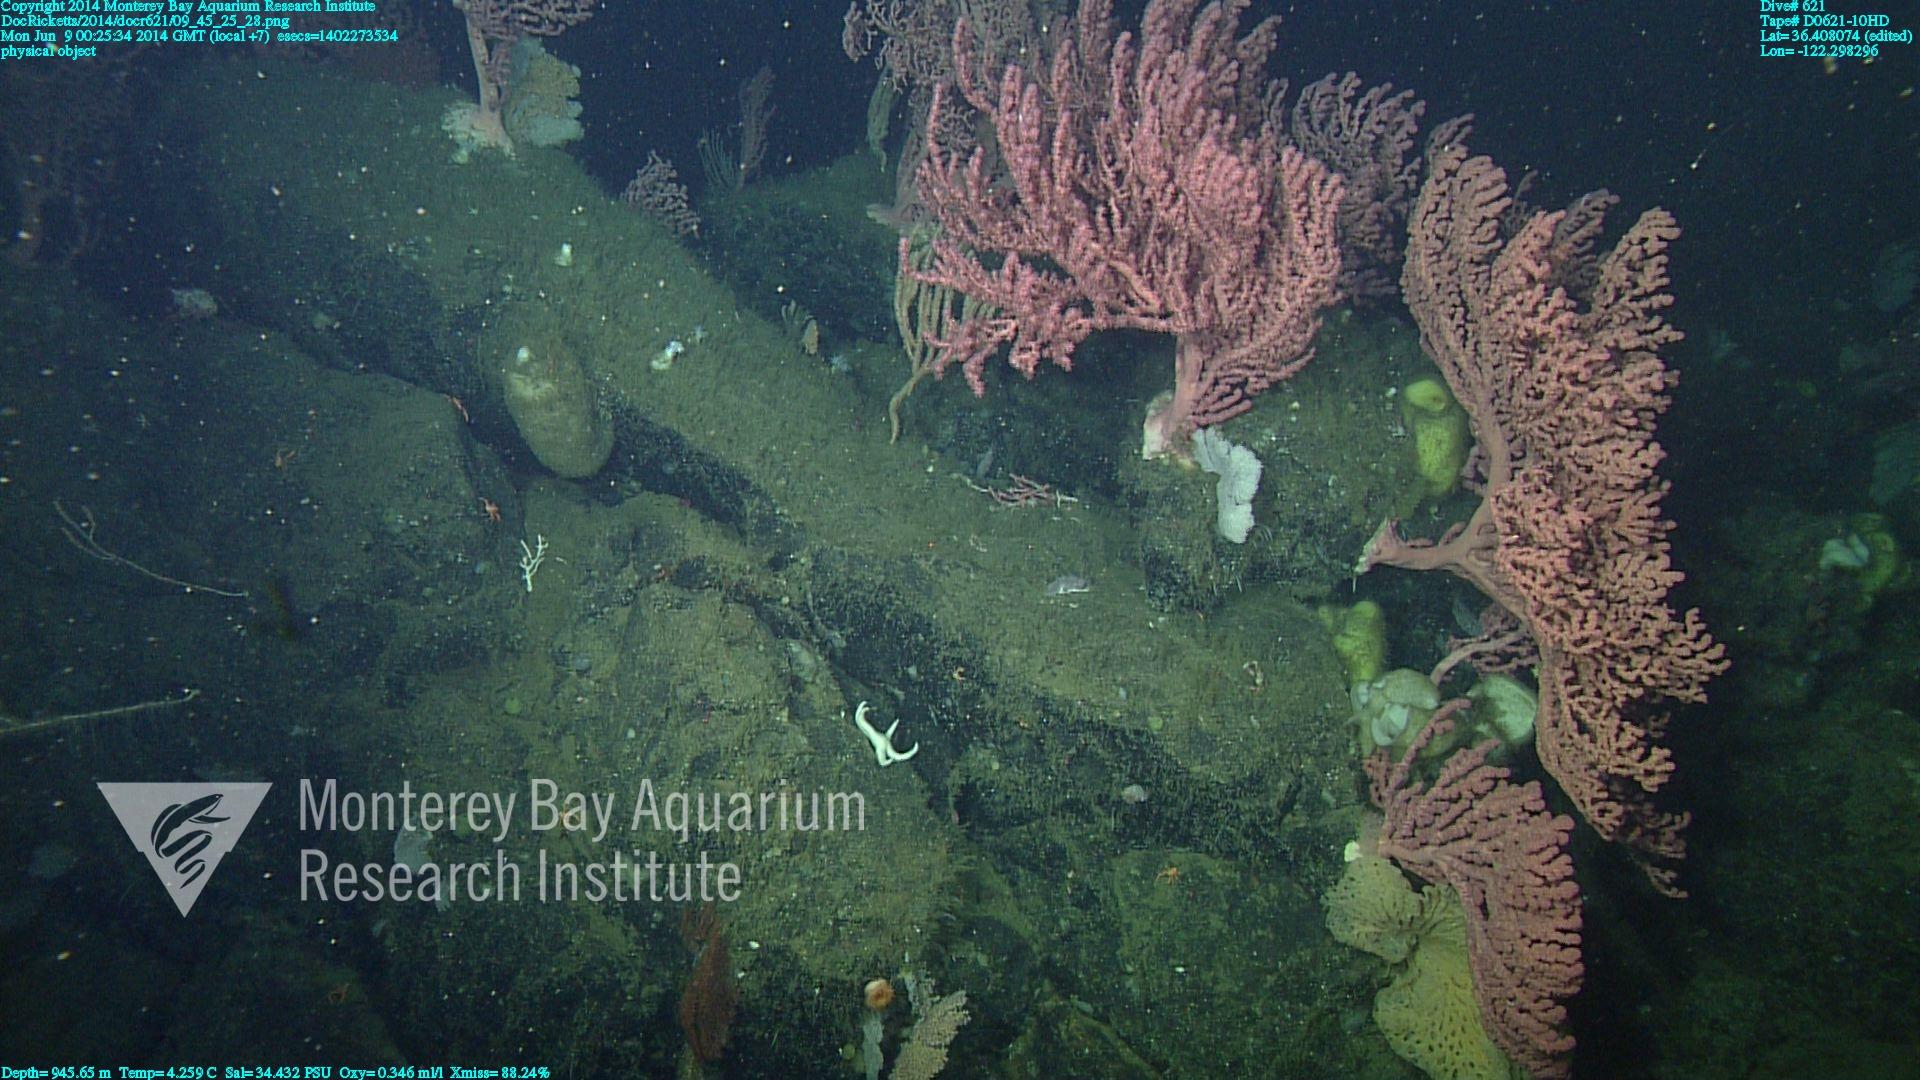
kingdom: Animalia
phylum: Cnidaria
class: Anthozoa
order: Scleralcyonacea
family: Coralliidae
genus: Paragorgia
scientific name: Paragorgia arborea
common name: Bubble gum coral
